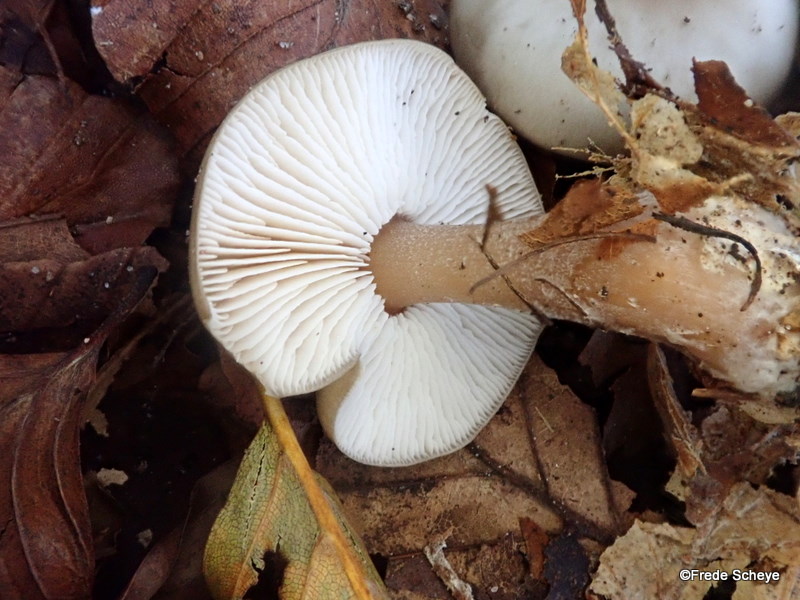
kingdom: Fungi
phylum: Basidiomycota
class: Agaricomycetes
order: Agaricales
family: Omphalotaceae
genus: Rhodocollybia
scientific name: Rhodocollybia asema
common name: horngrå fladhat
